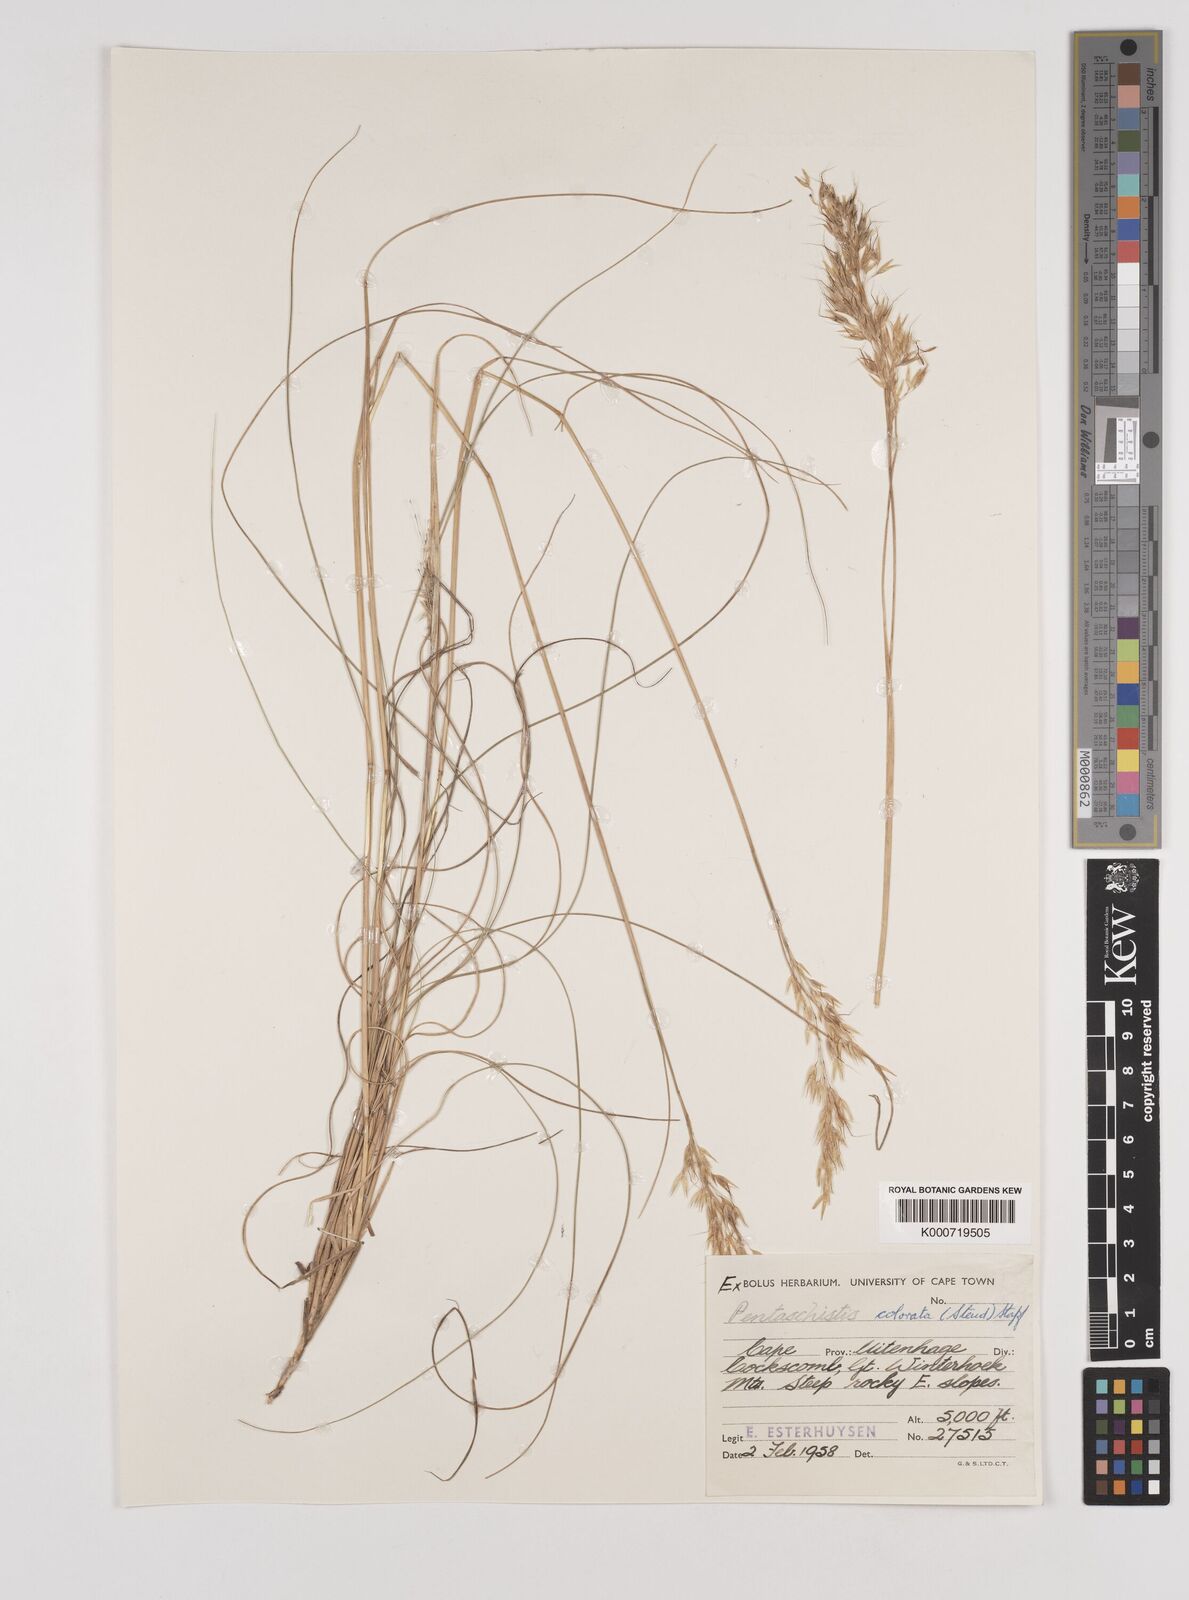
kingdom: Plantae
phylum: Tracheophyta
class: Liliopsida
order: Poales
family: Poaceae
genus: Pentameris
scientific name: Pentameris colorata
